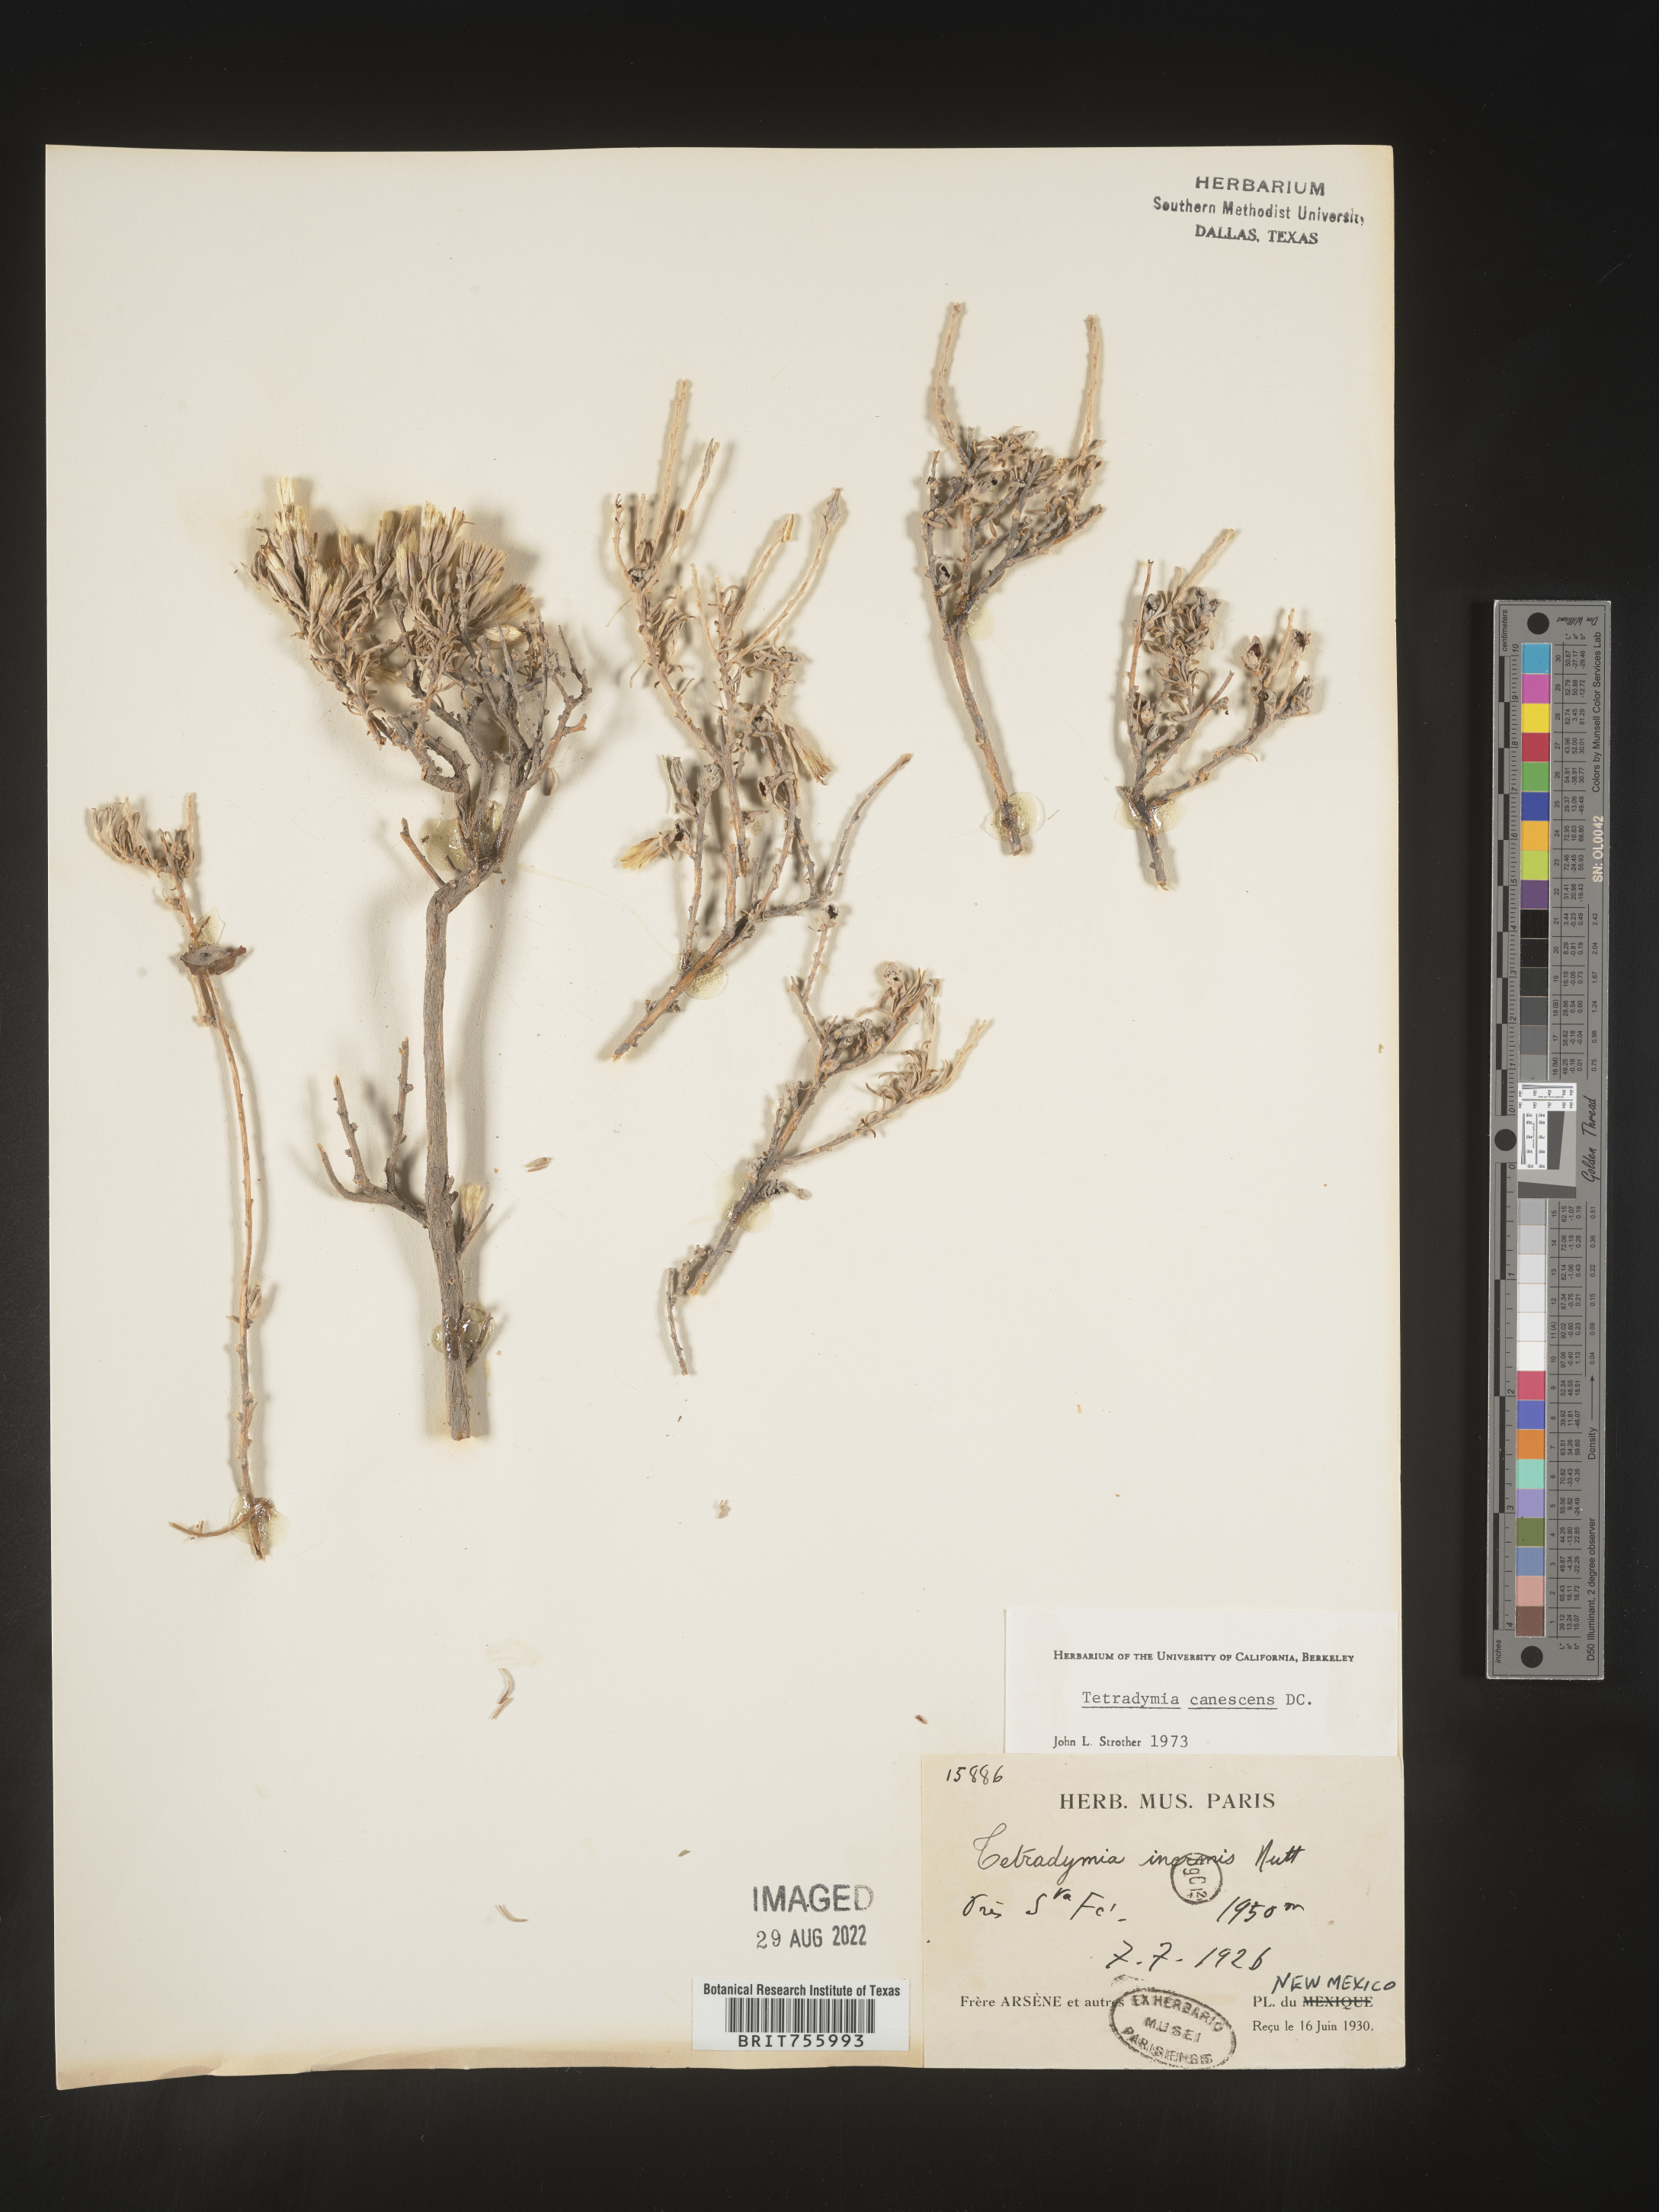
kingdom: Plantae
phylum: Tracheophyta
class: Magnoliopsida
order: Asterales
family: Asteraceae
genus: Tetradymia
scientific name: Tetradymia canescens
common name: Spineless horsebrush
